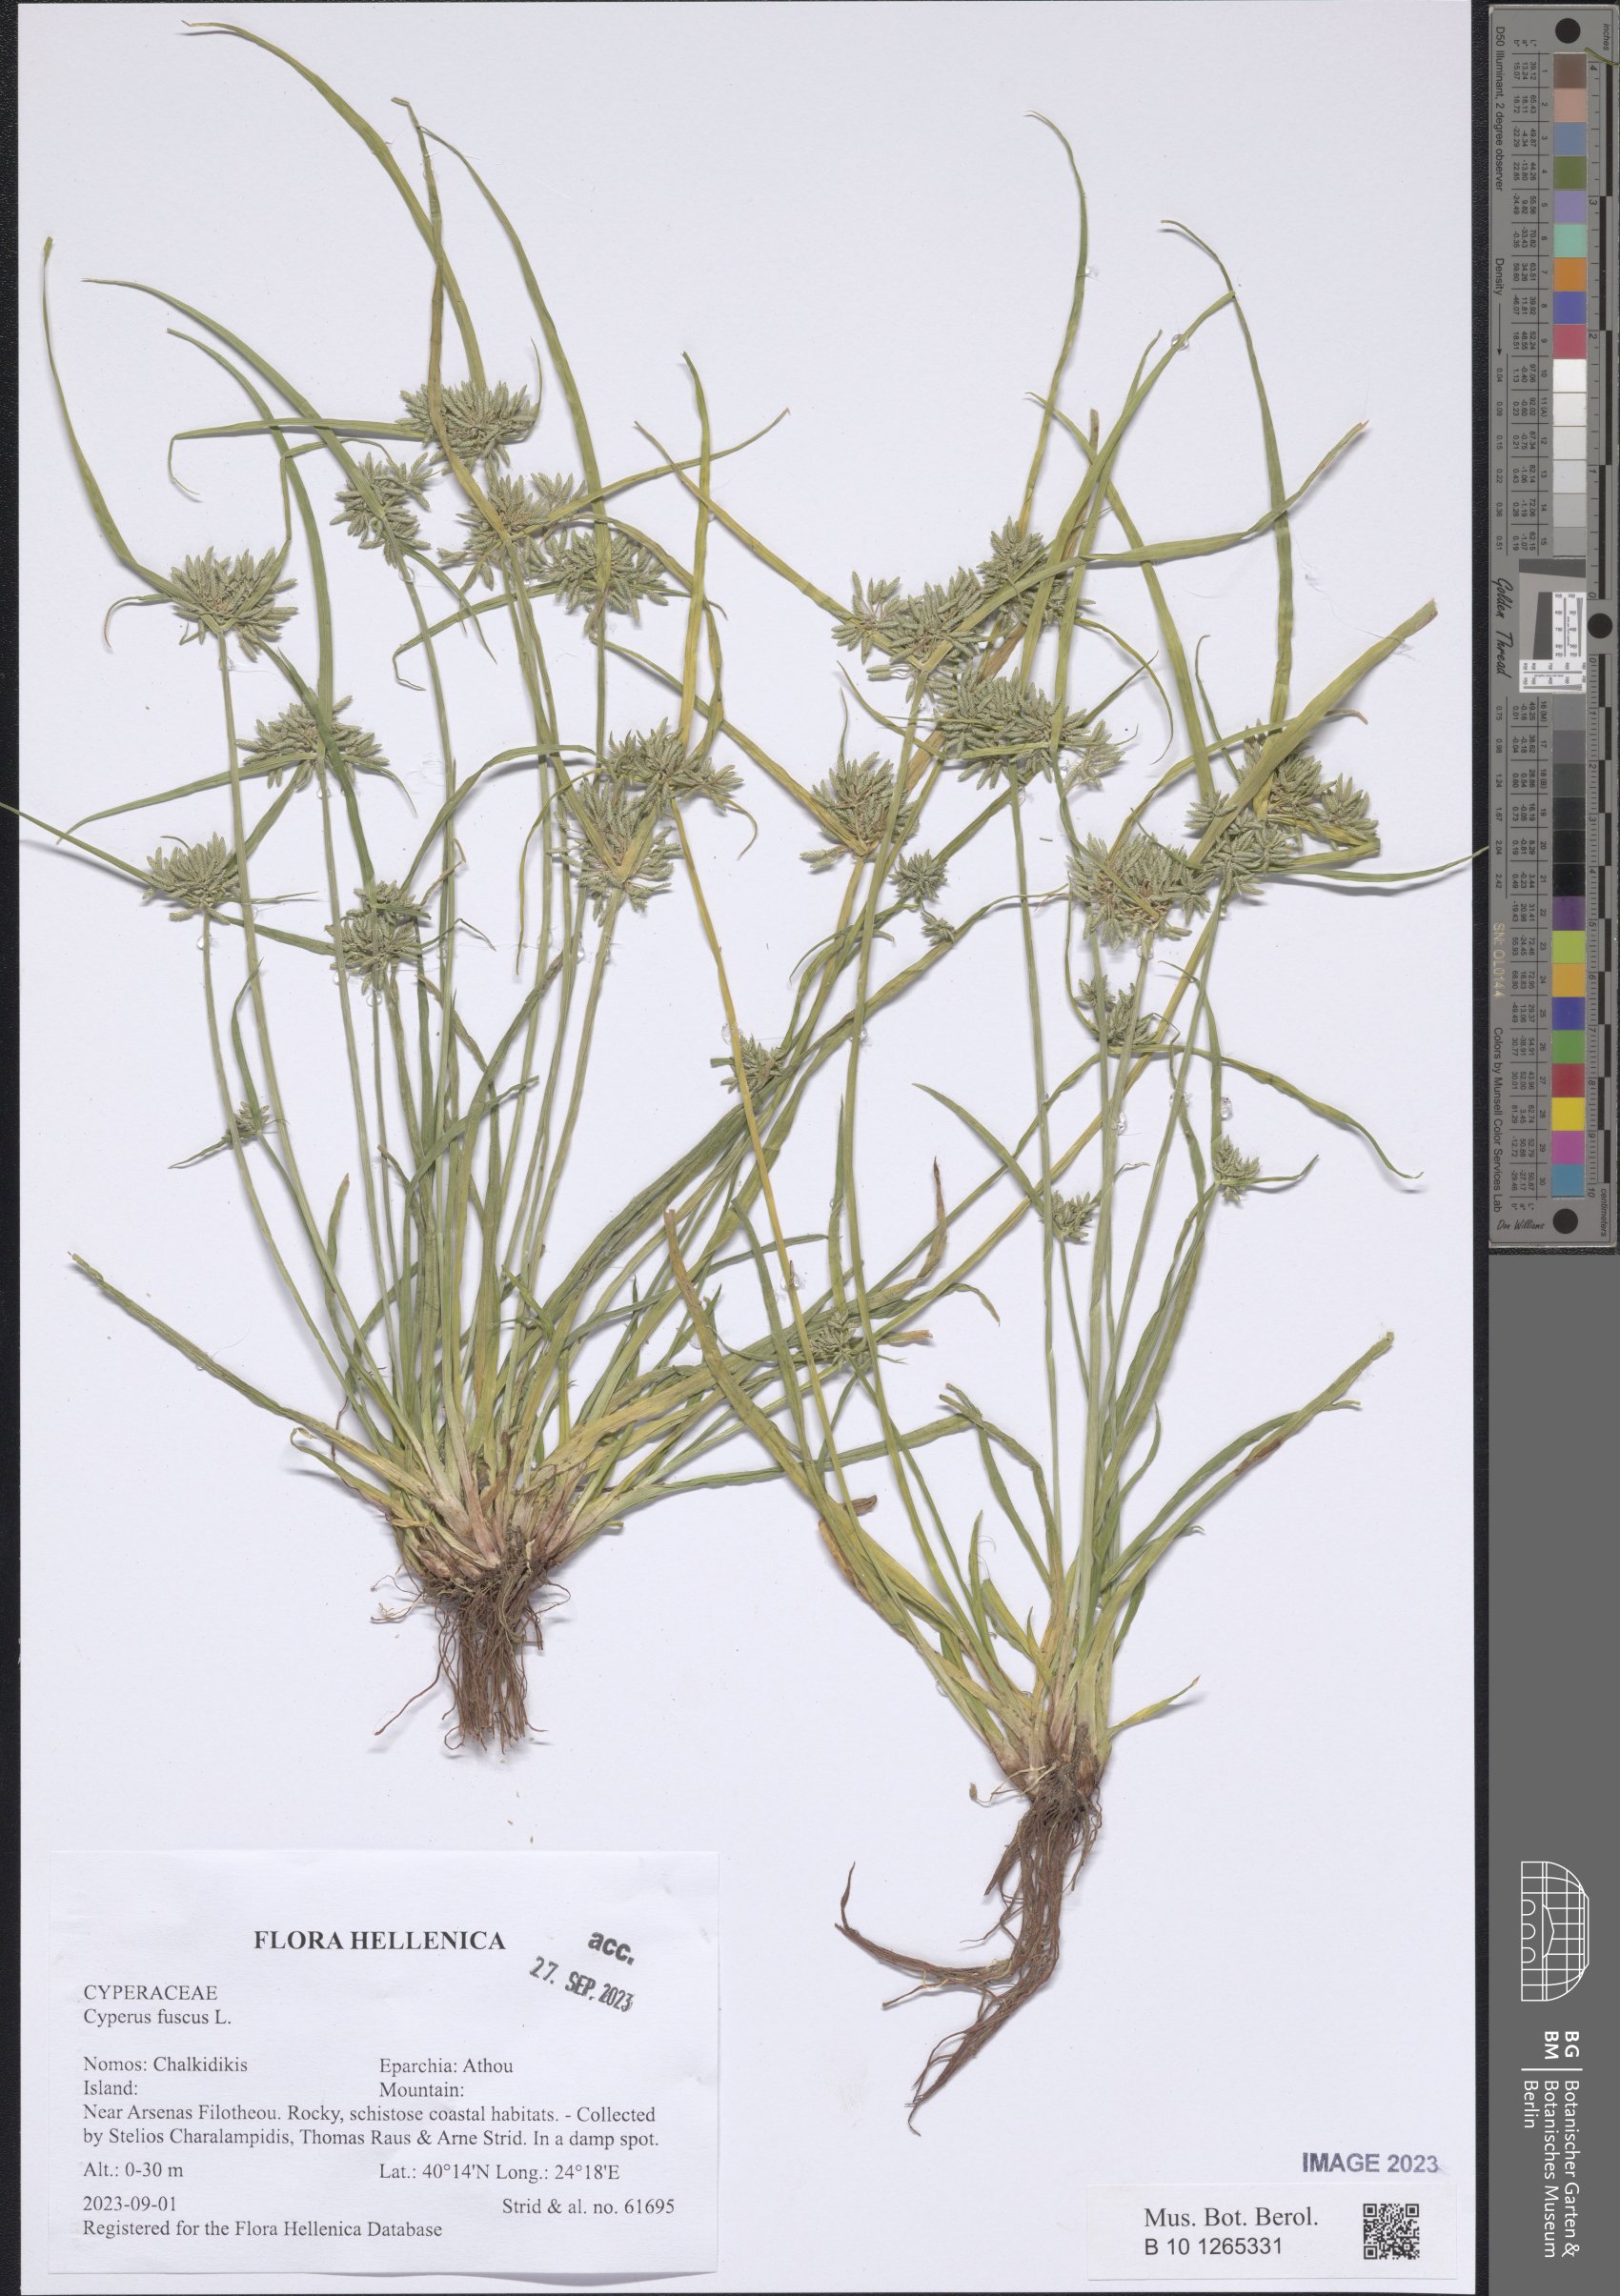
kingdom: Plantae
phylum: Tracheophyta
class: Liliopsida
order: Poales
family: Cyperaceae
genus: Cyperus
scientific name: Cyperus fuscus
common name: Brown galingale
